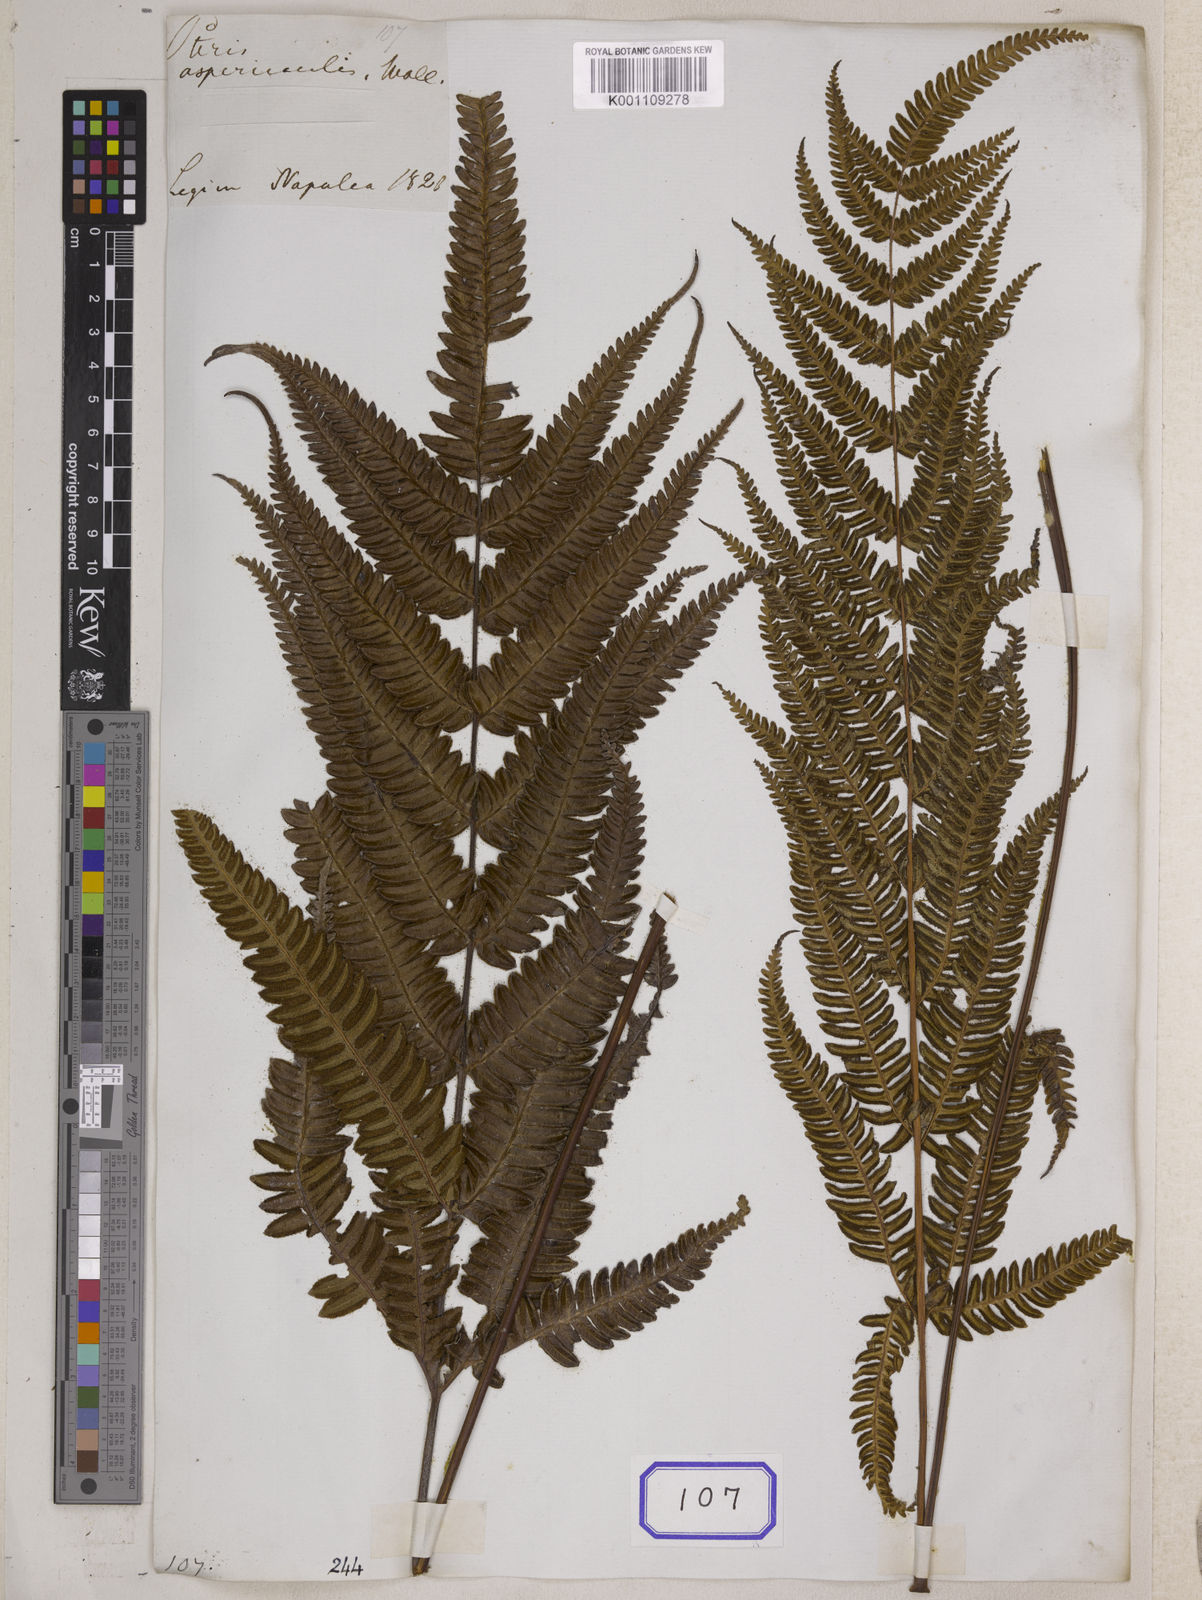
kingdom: Plantae
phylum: Tracheophyta
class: Polypodiopsida
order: Polypodiales
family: Pteridaceae
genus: Pteris
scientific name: Pteris aspericaulis
